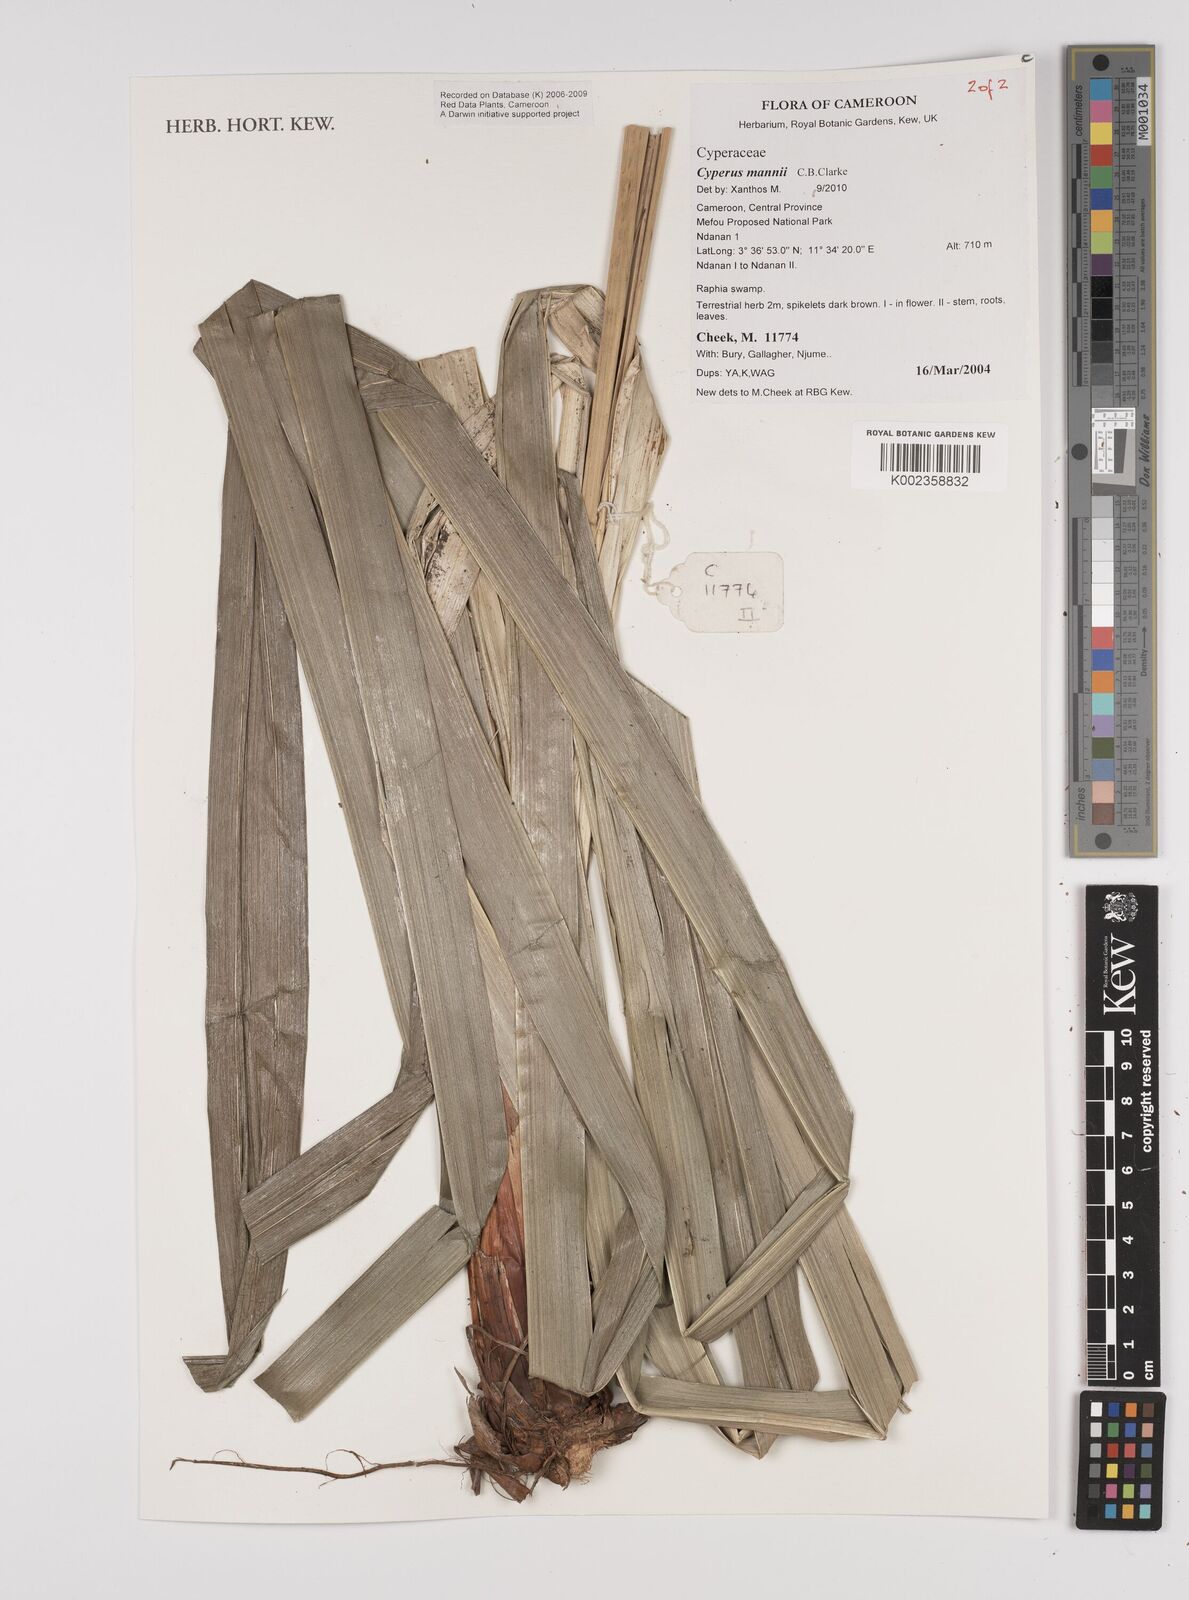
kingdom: Plantae
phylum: Tracheophyta
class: Liliopsida
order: Poales
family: Cyperaceae
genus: Cyperus
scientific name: Cyperus baronii
